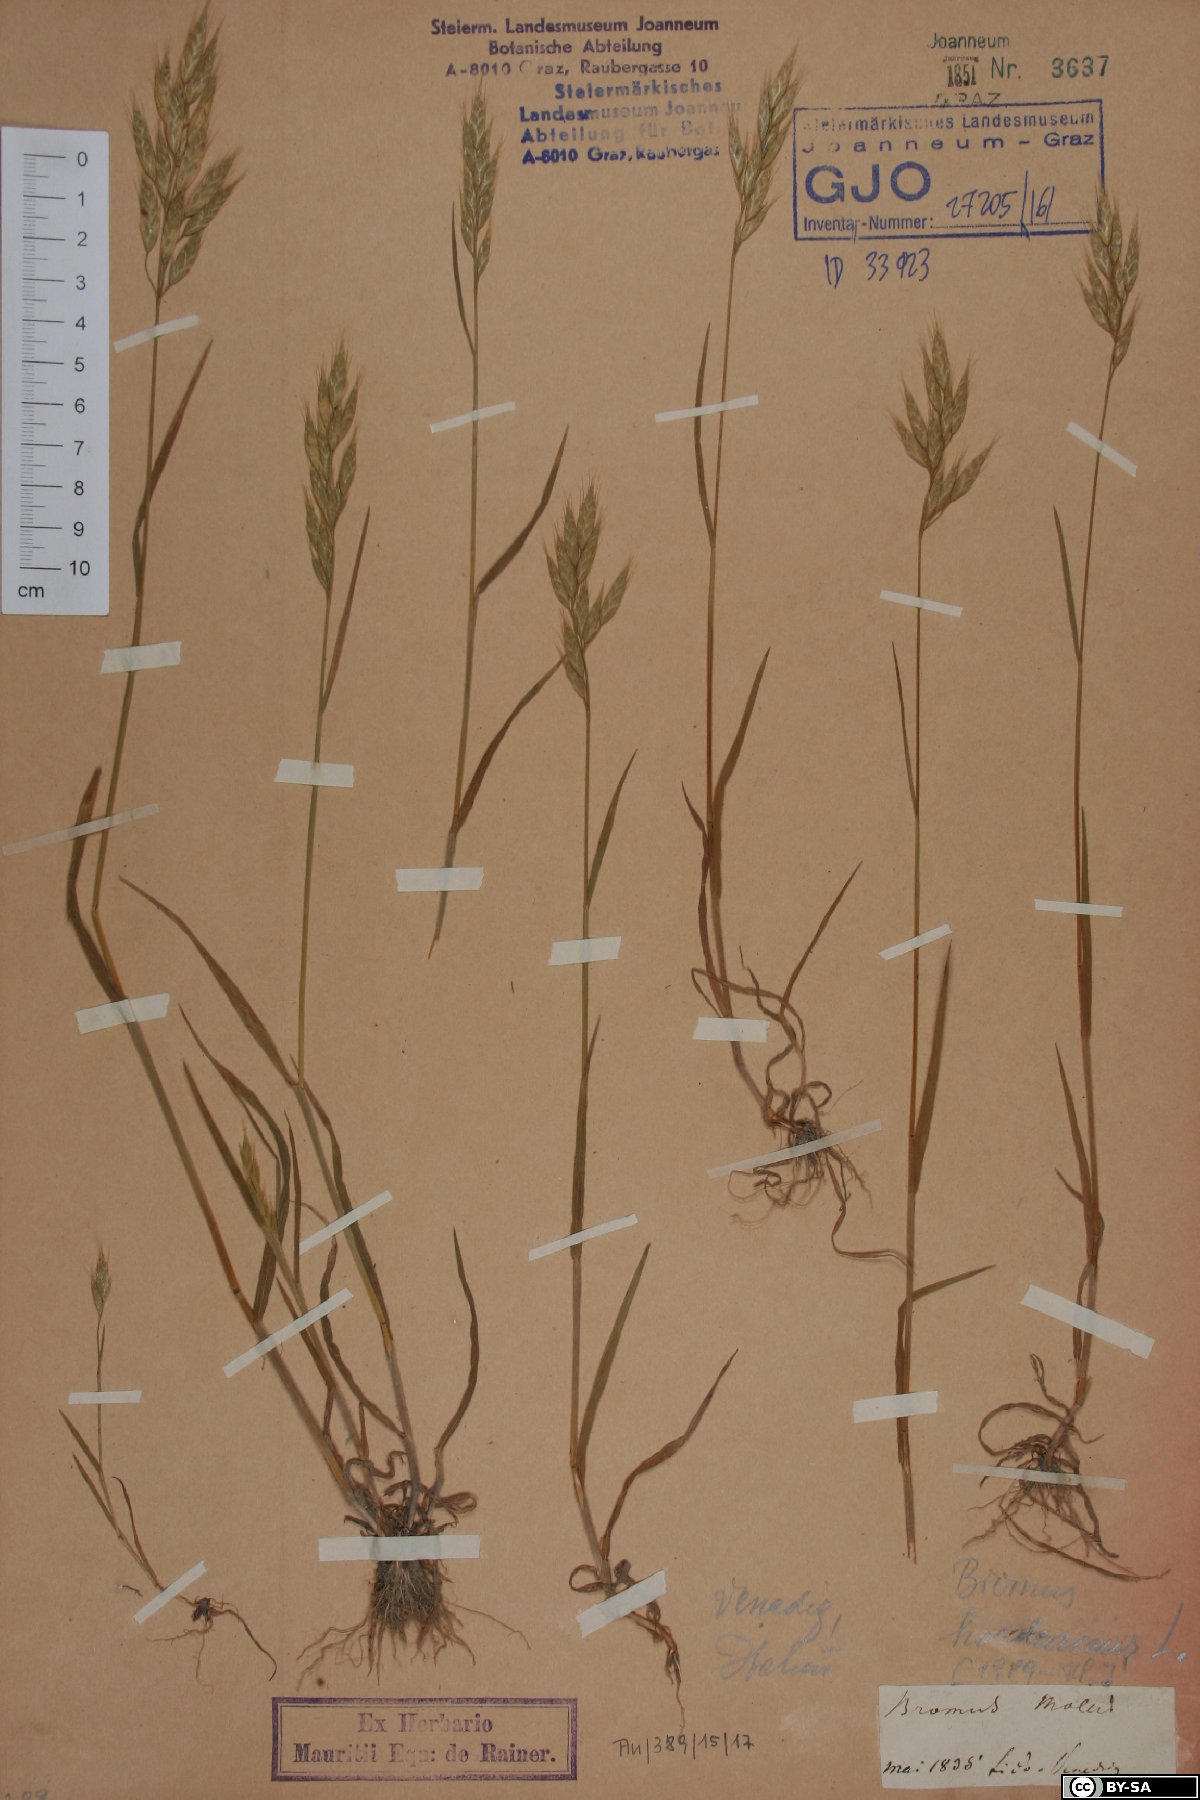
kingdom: Plantae
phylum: Tracheophyta
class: Liliopsida
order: Poales
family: Poaceae
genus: Bromus
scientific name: Bromus hordeaceus
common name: Soft brome
